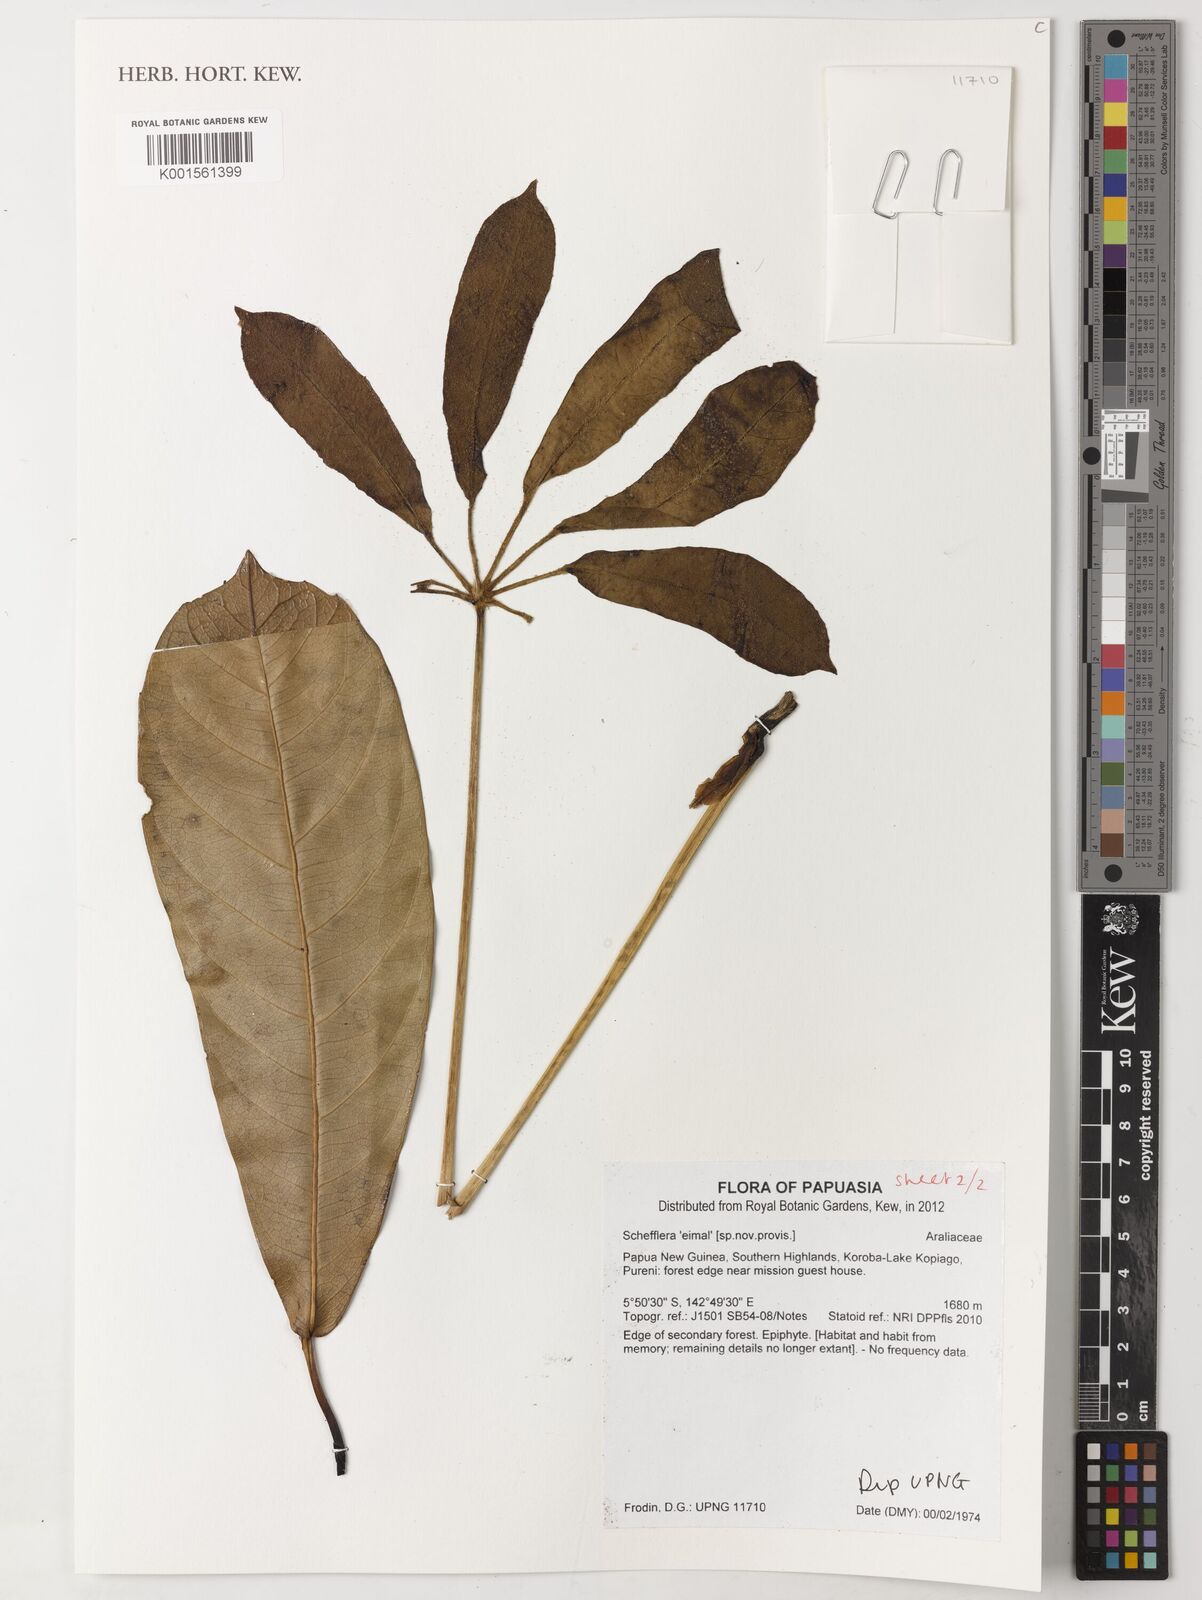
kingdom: Plantae
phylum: Tracheophyta
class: Magnoliopsida
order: Apiales
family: Araliaceae
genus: Schefflera
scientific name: Schefflera
